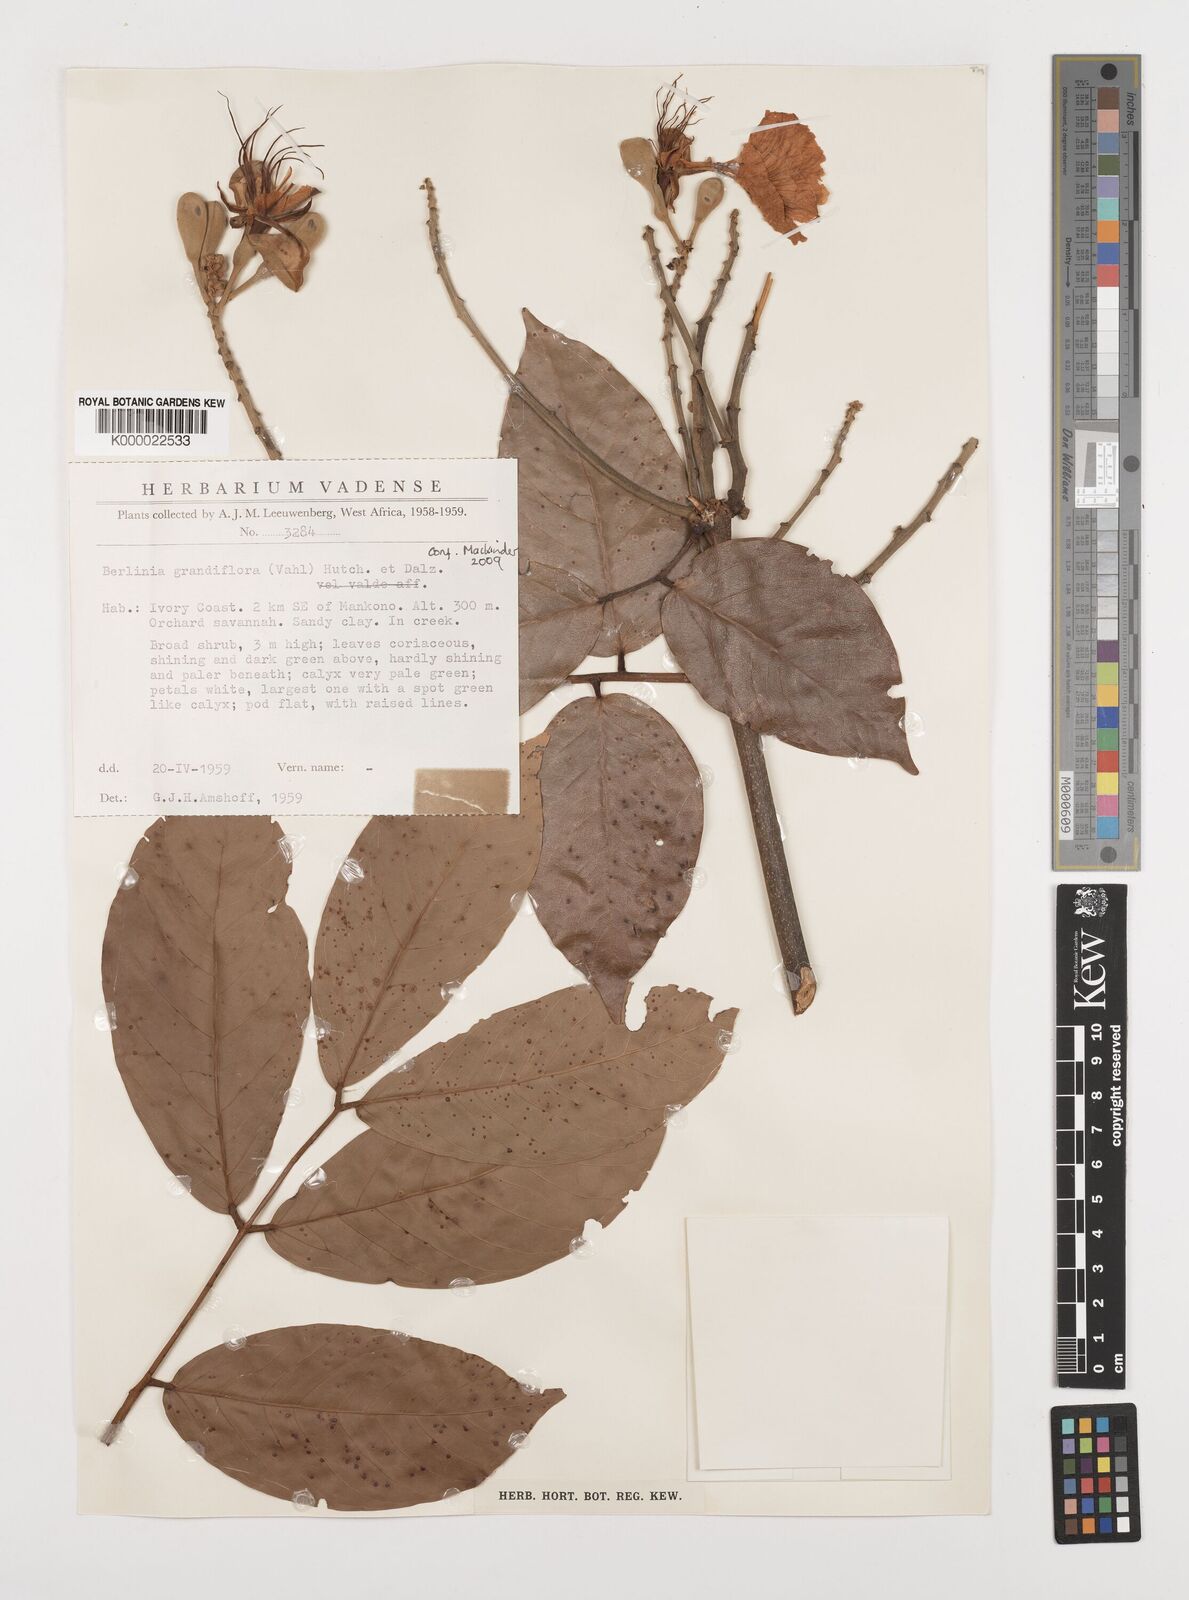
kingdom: Plantae
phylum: Tracheophyta
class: Magnoliopsida
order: Fabales
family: Fabaceae
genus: Berlinia
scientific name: Berlinia grandiflora
